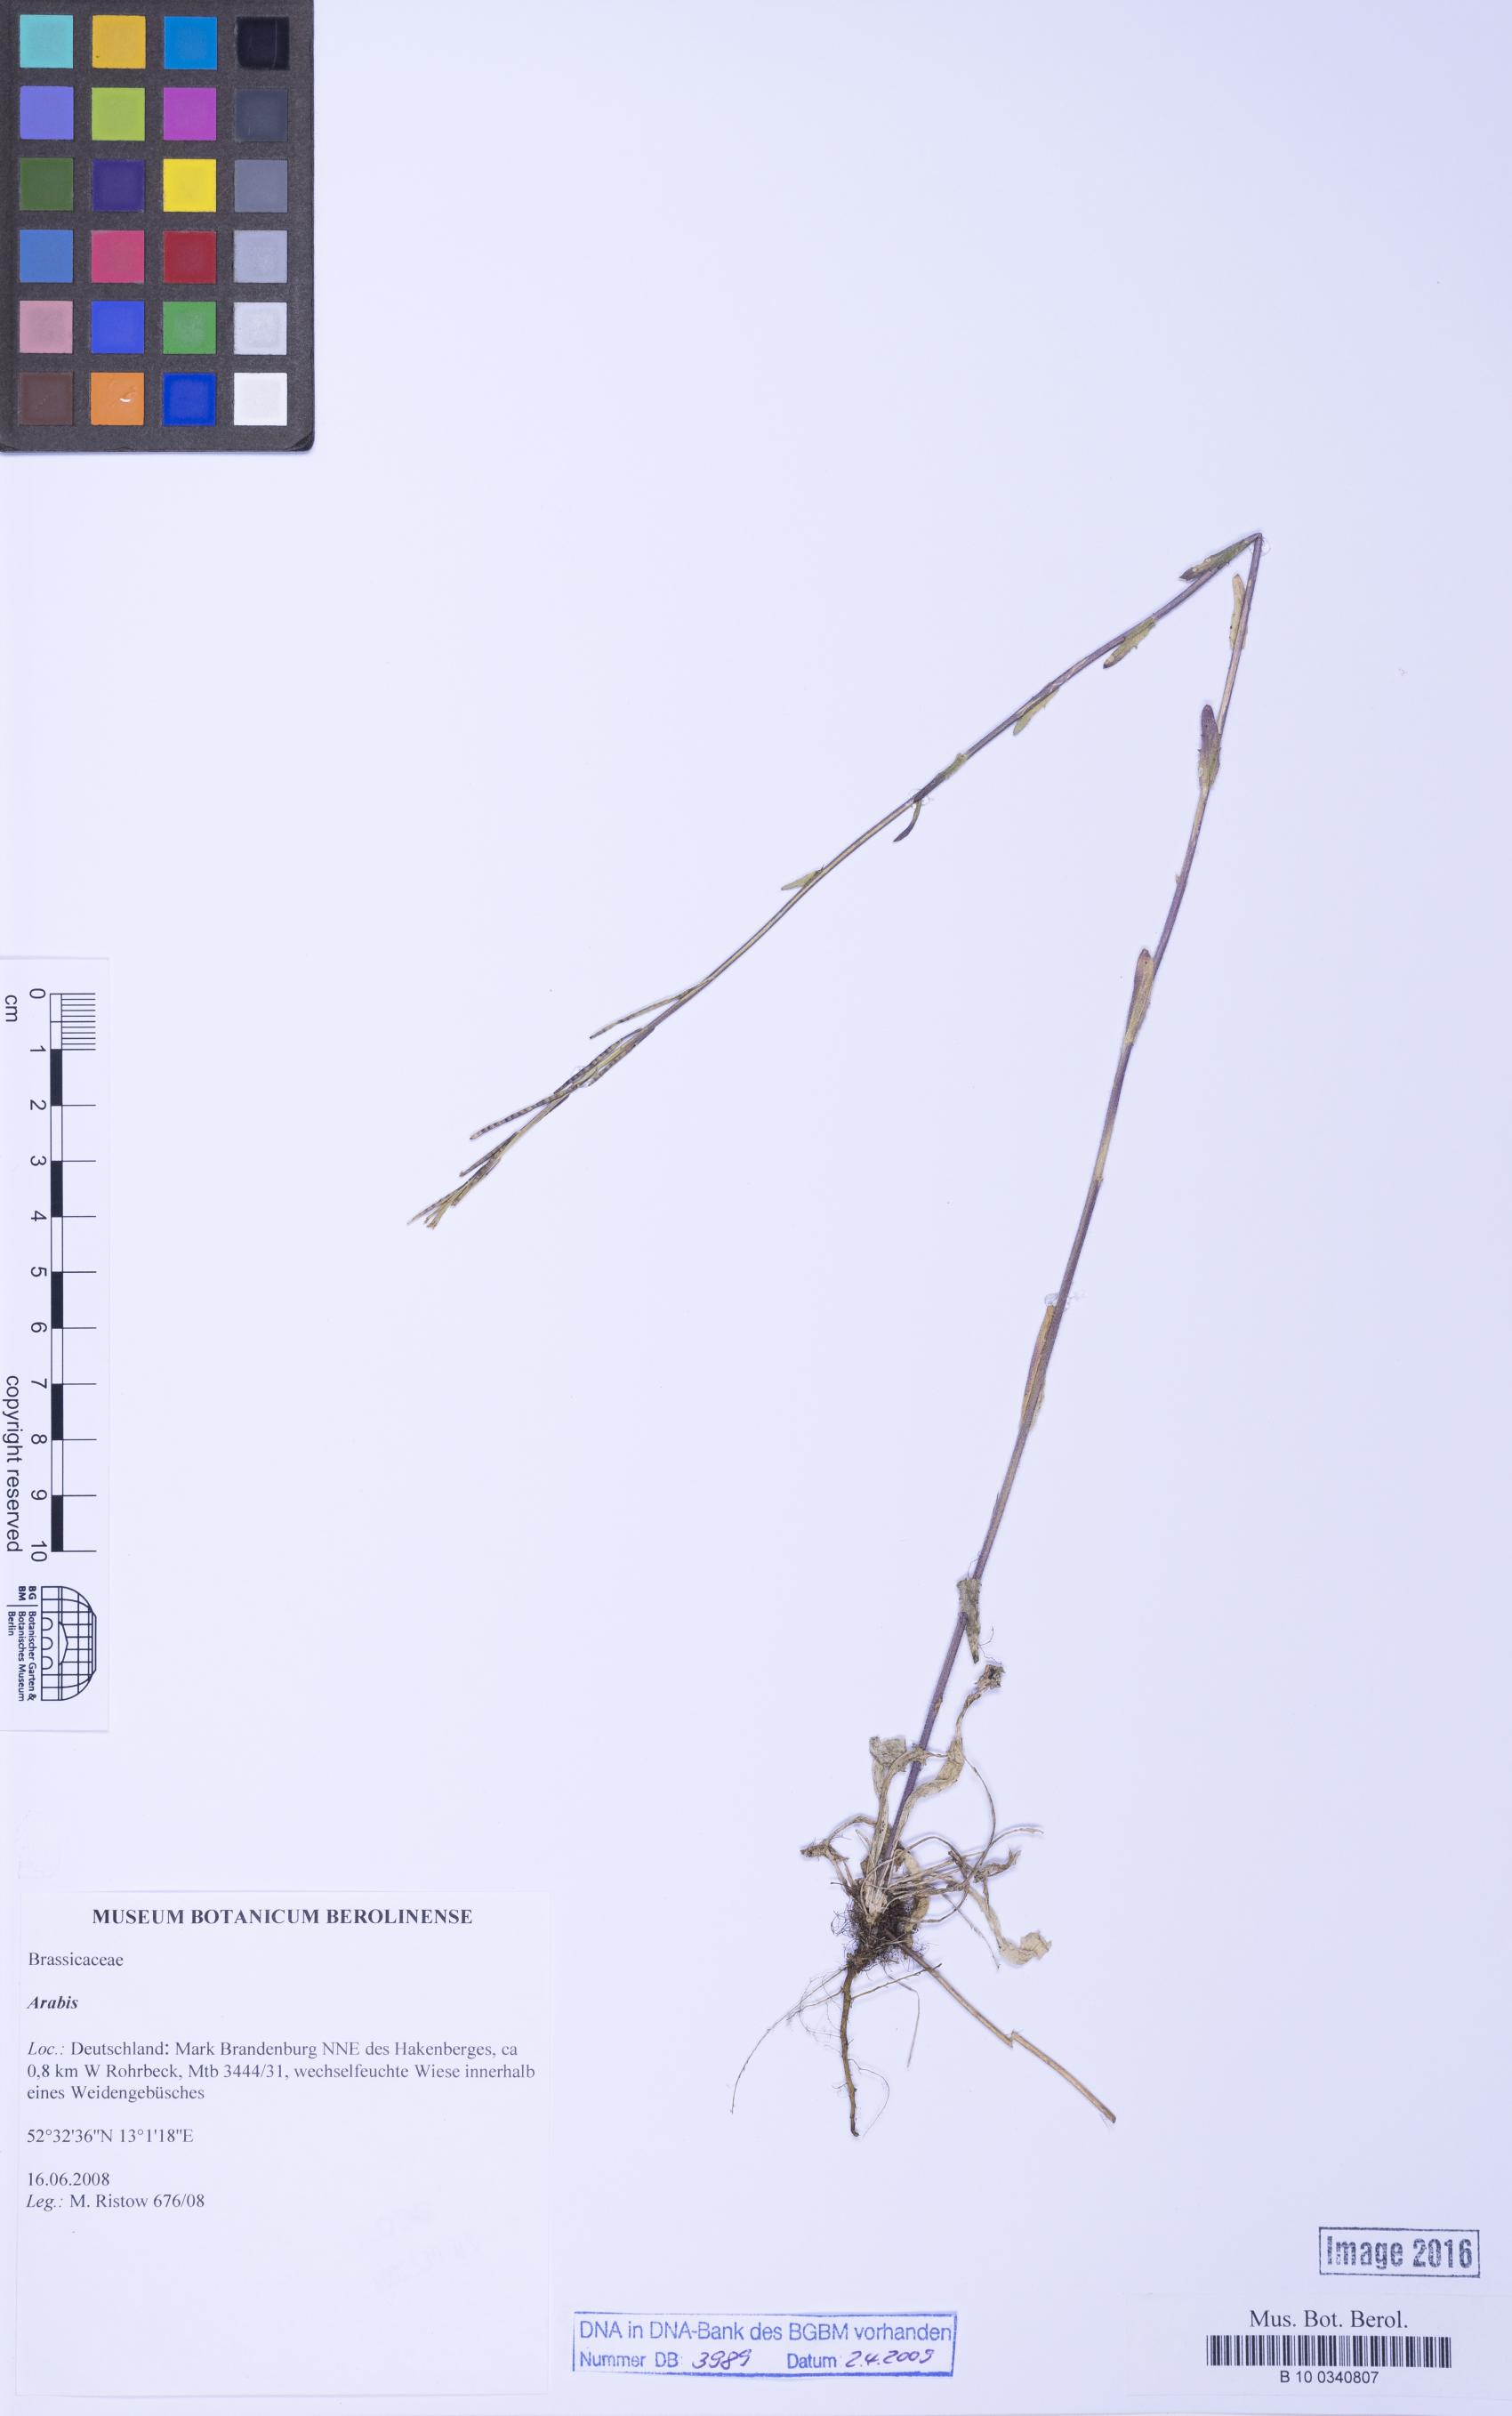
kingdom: Plantae
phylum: Tracheophyta
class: Magnoliopsida
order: Brassicales
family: Brassicaceae
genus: Arabis
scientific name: Arabis
